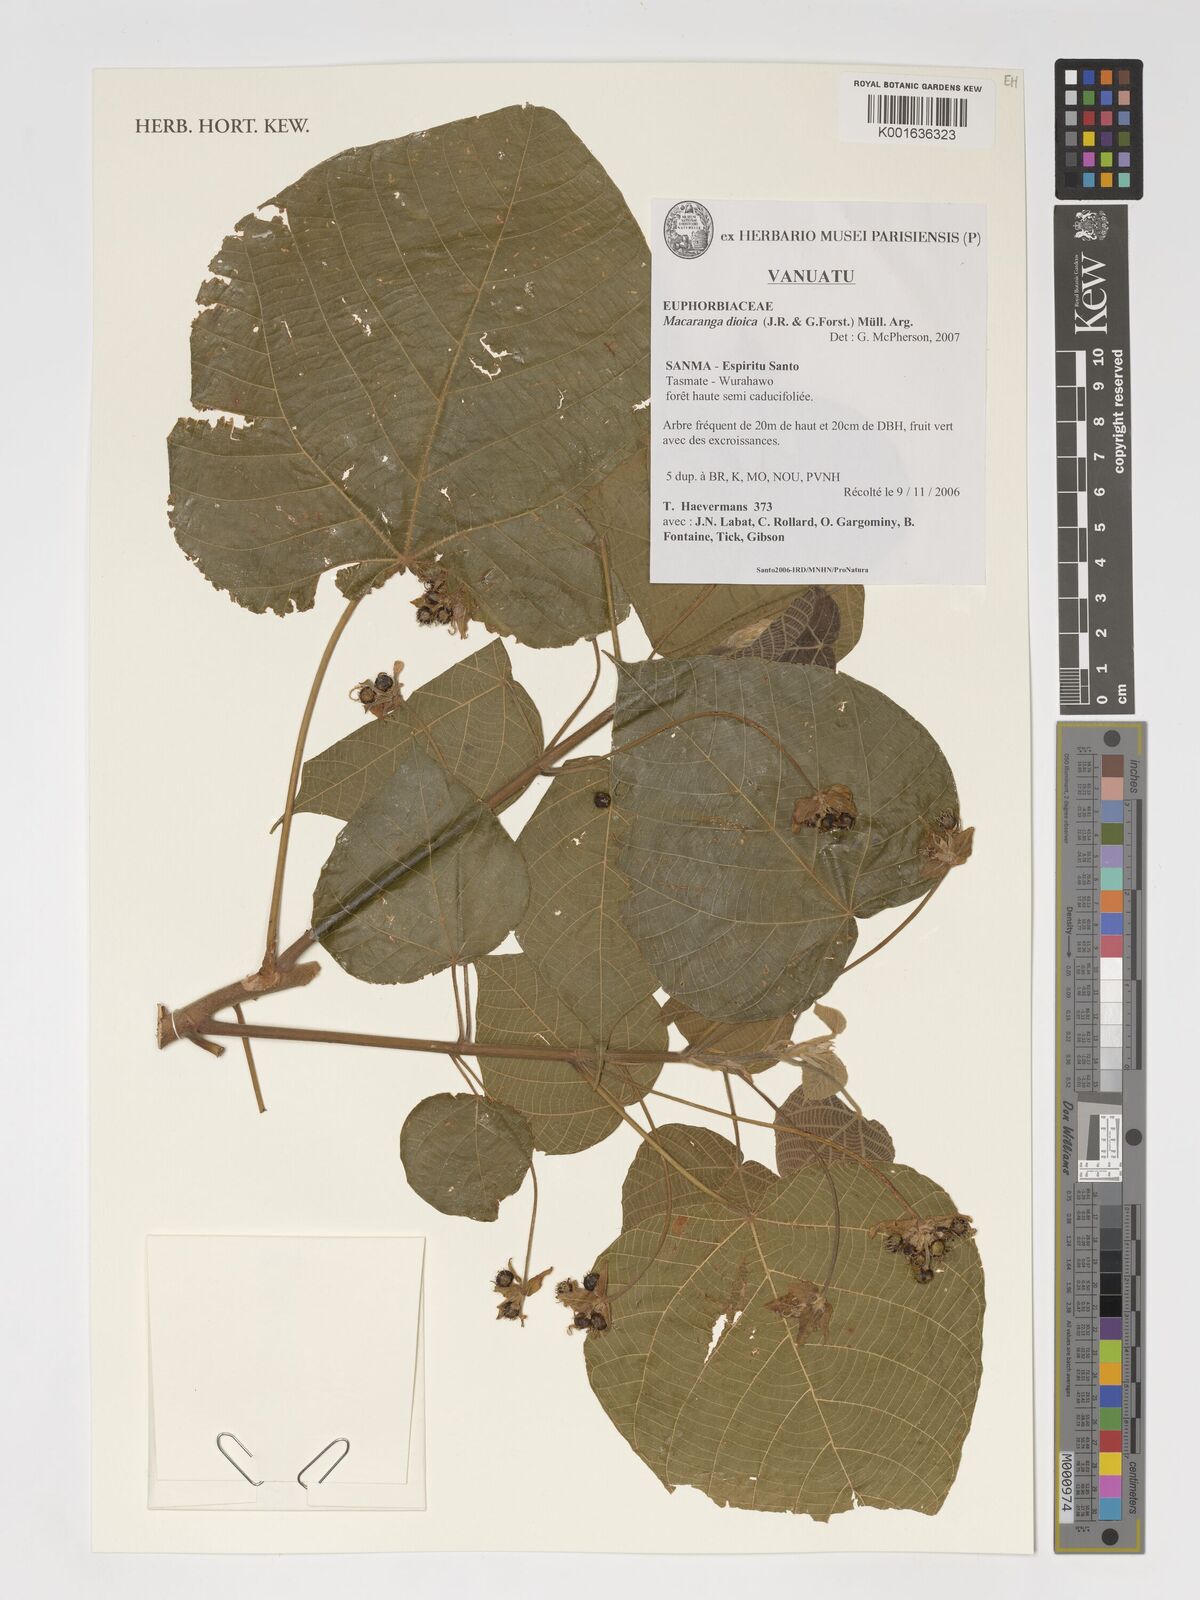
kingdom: Plantae
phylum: Tracheophyta
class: Magnoliopsida
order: Malpighiales
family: Euphorbiaceae
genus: Macaranga
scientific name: Macaranga dioica
